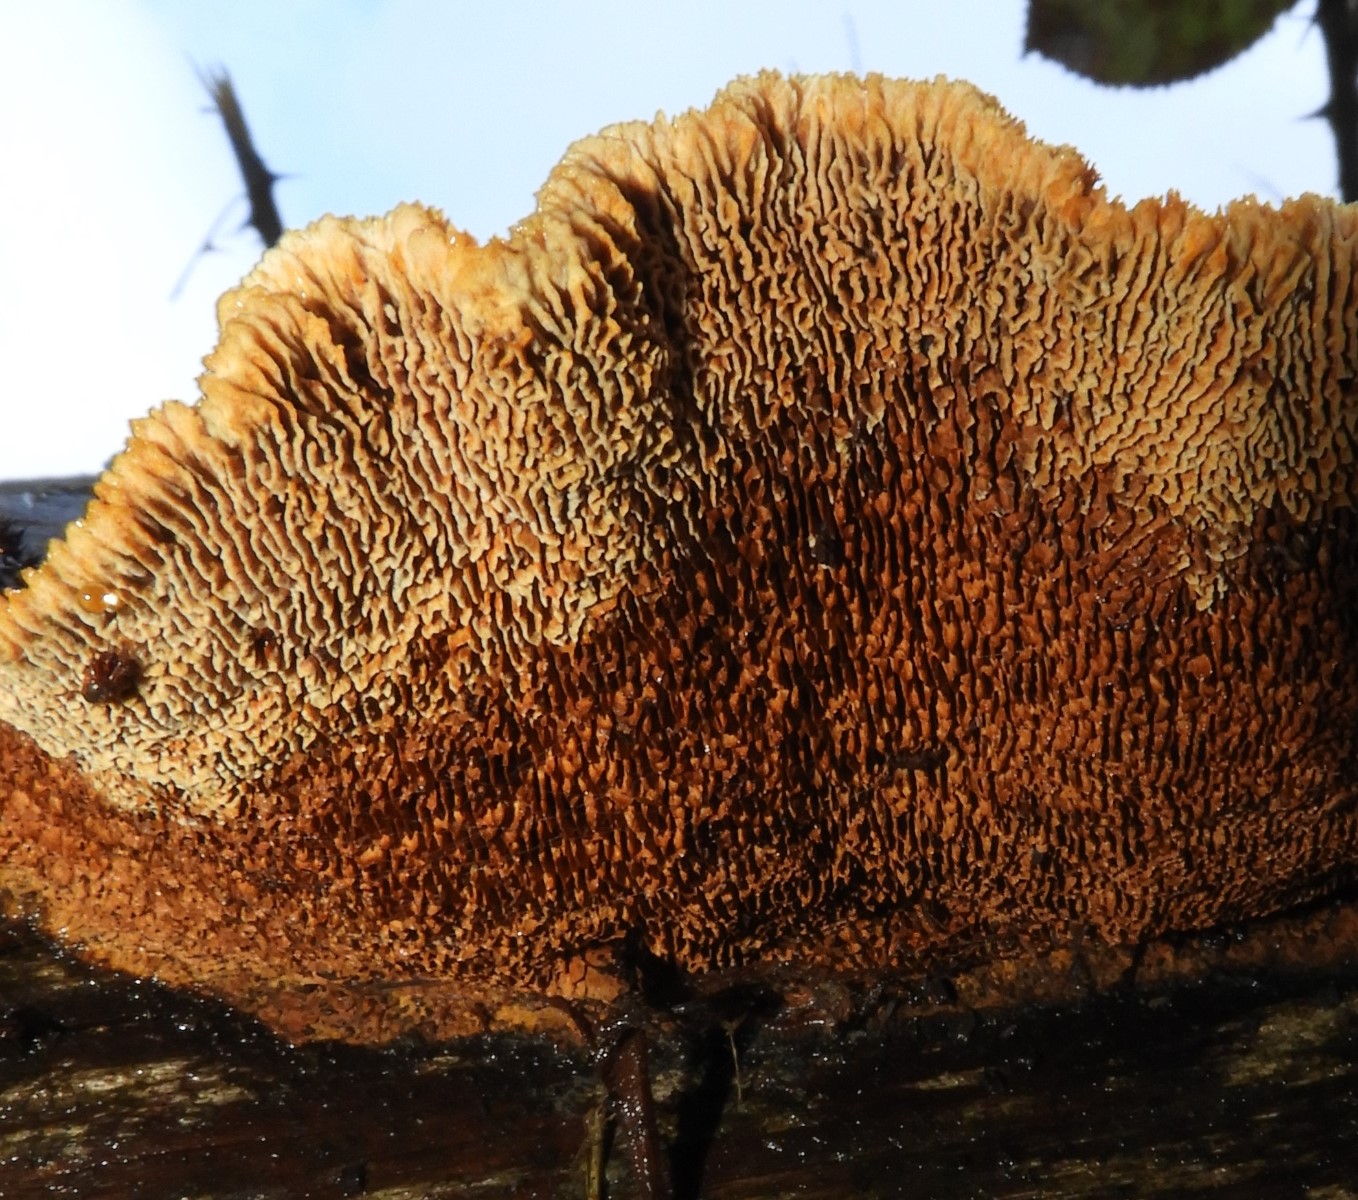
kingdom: Fungi
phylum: Basidiomycota
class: Agaricomycetes
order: Gloeophyllales
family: Gloeophyllaceae
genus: Gloeophyllum
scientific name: Gloeophyllum sepiarium
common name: fyrre-korkhat
